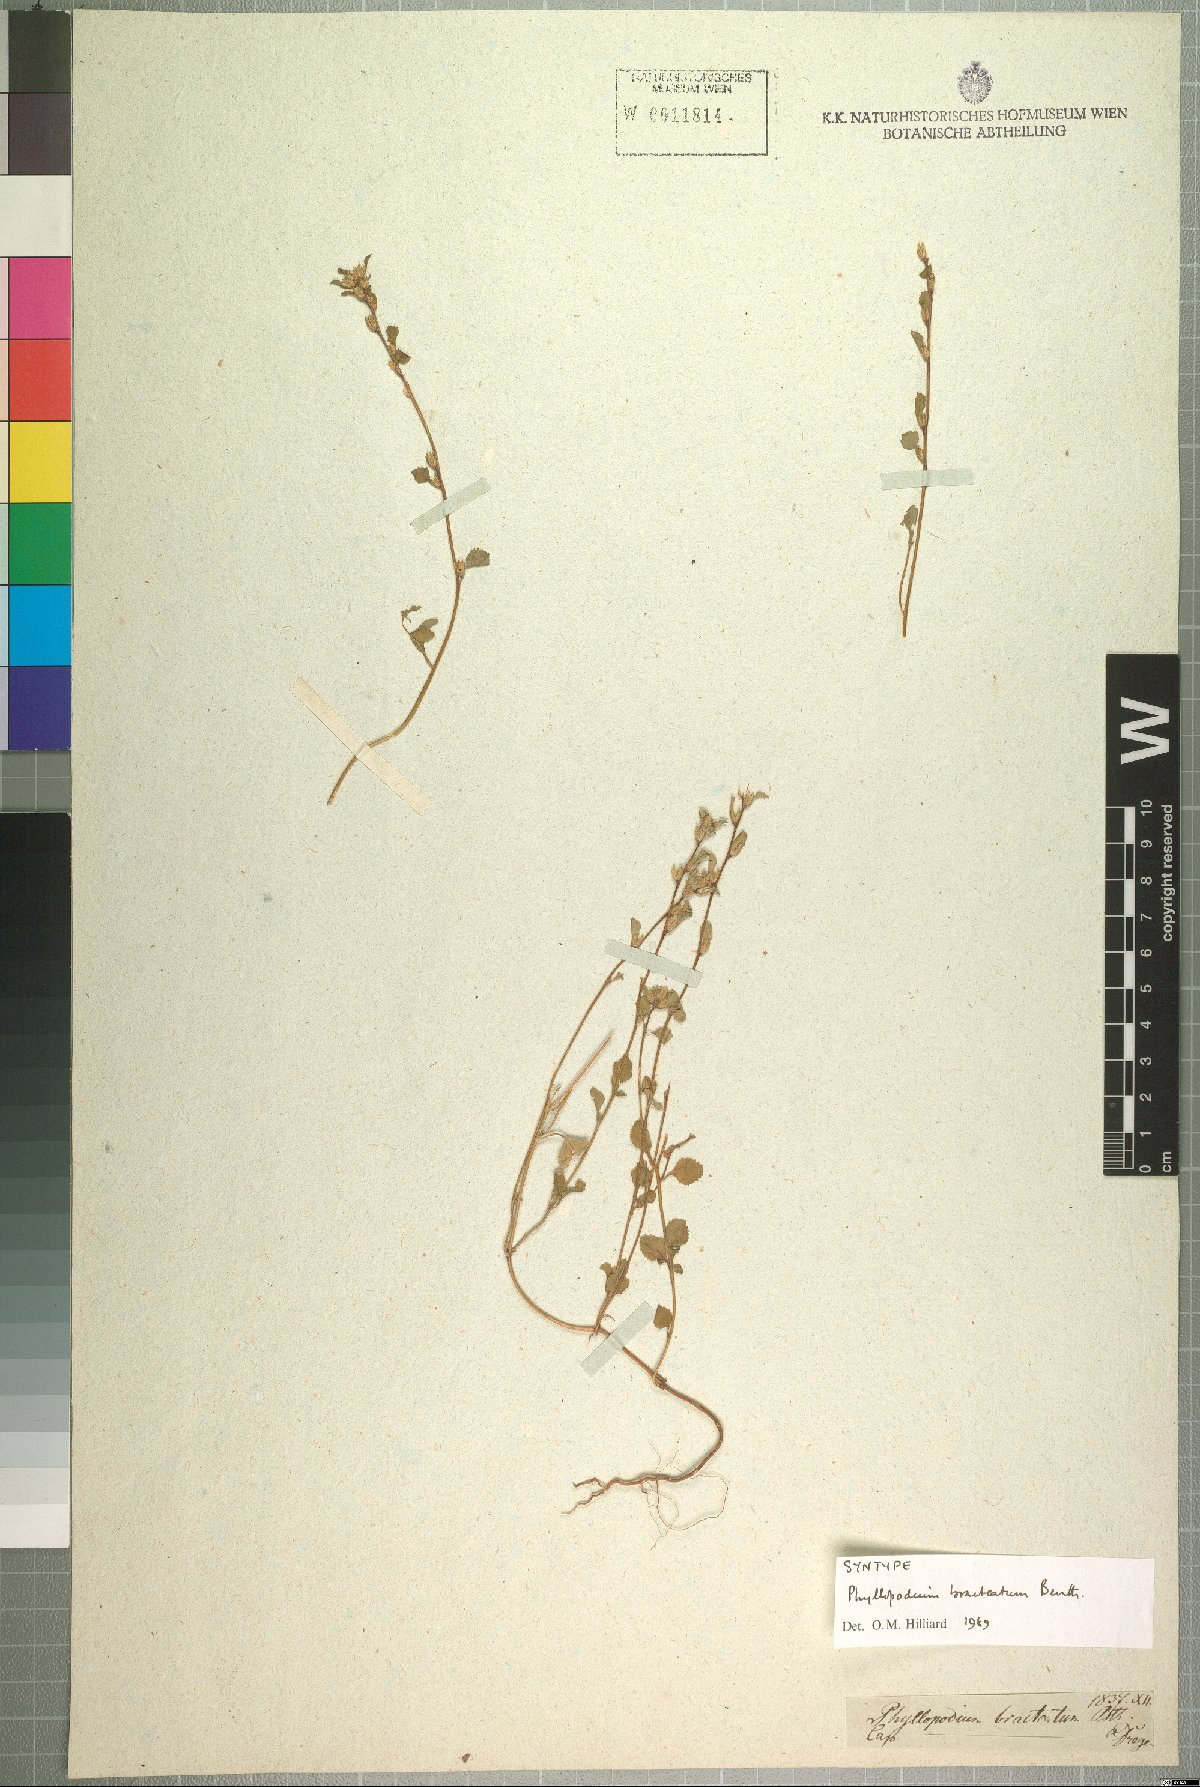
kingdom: Plantae
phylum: Tracheophyta
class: Magnoliopsida
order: Lamiales
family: Scrophulariaceae
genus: Phyllopodium
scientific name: Phyllopodium bracteatum
